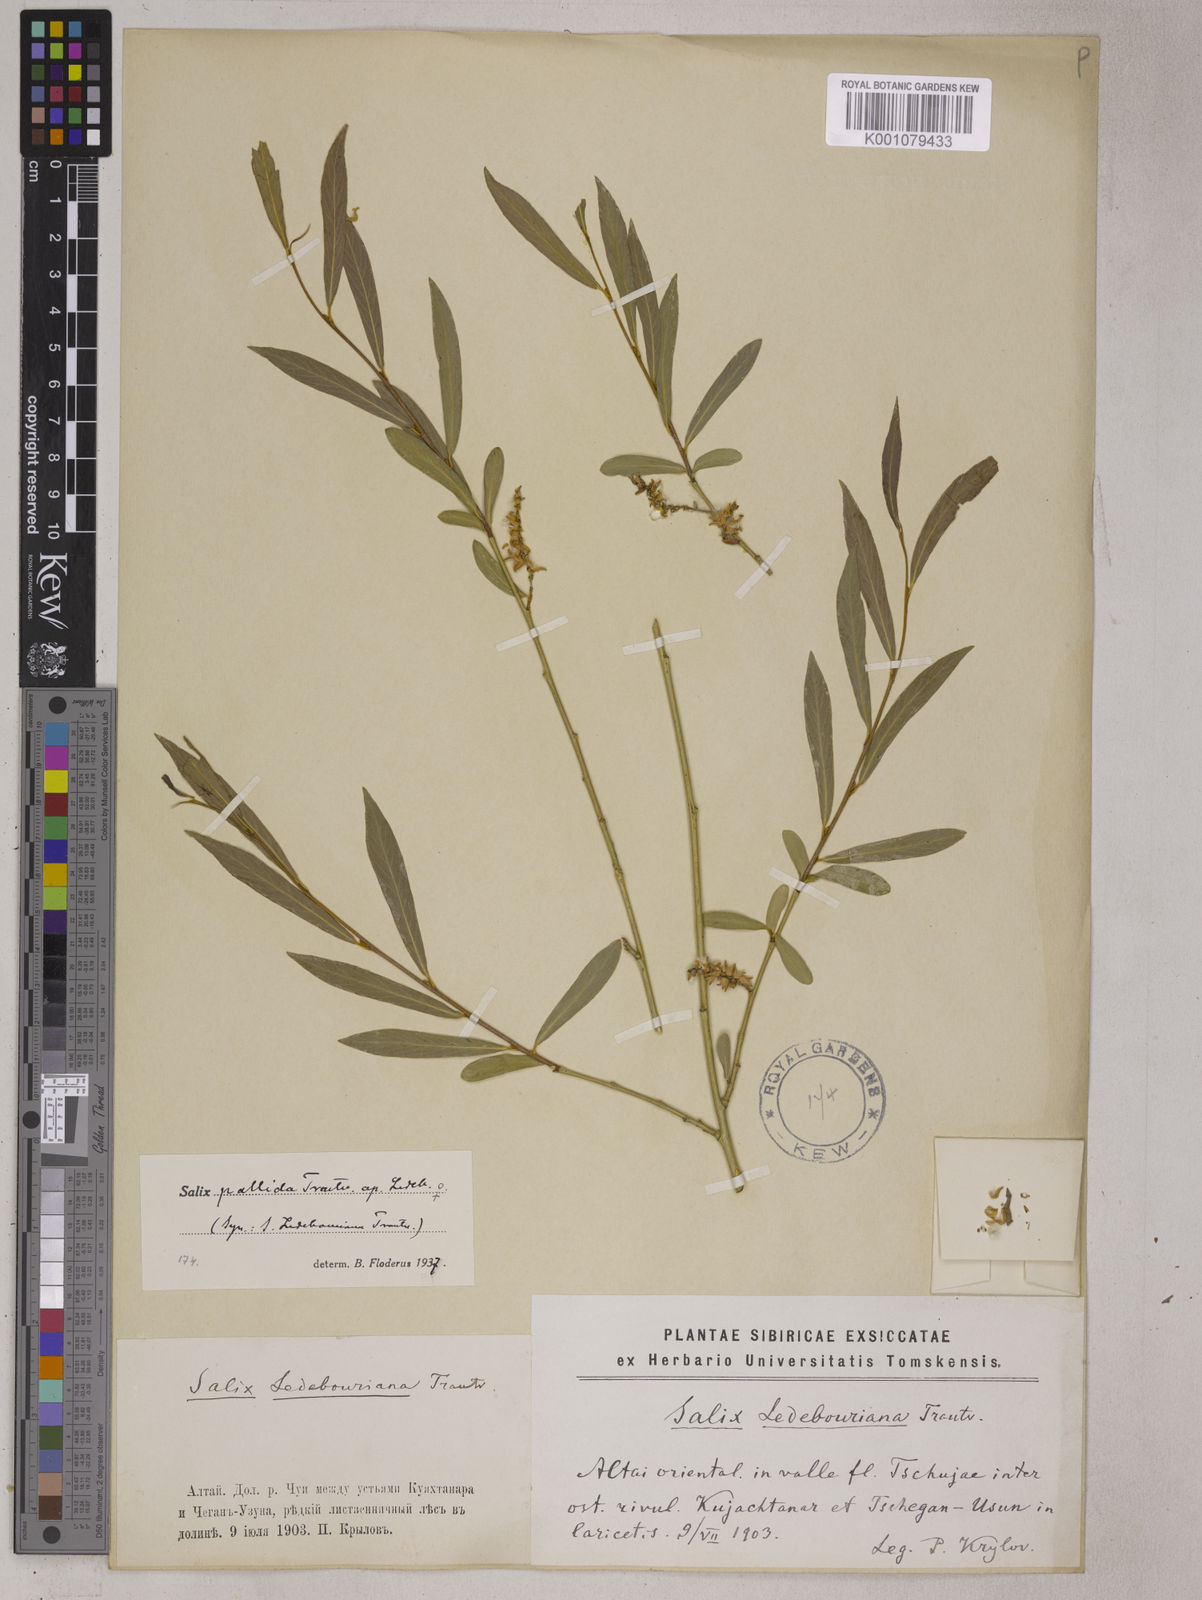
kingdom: Plantae
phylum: Tracheophyta
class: Magnoliopsida
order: Malpighiales
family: Salicaceae
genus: Salix
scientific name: Salix ledebouriana
